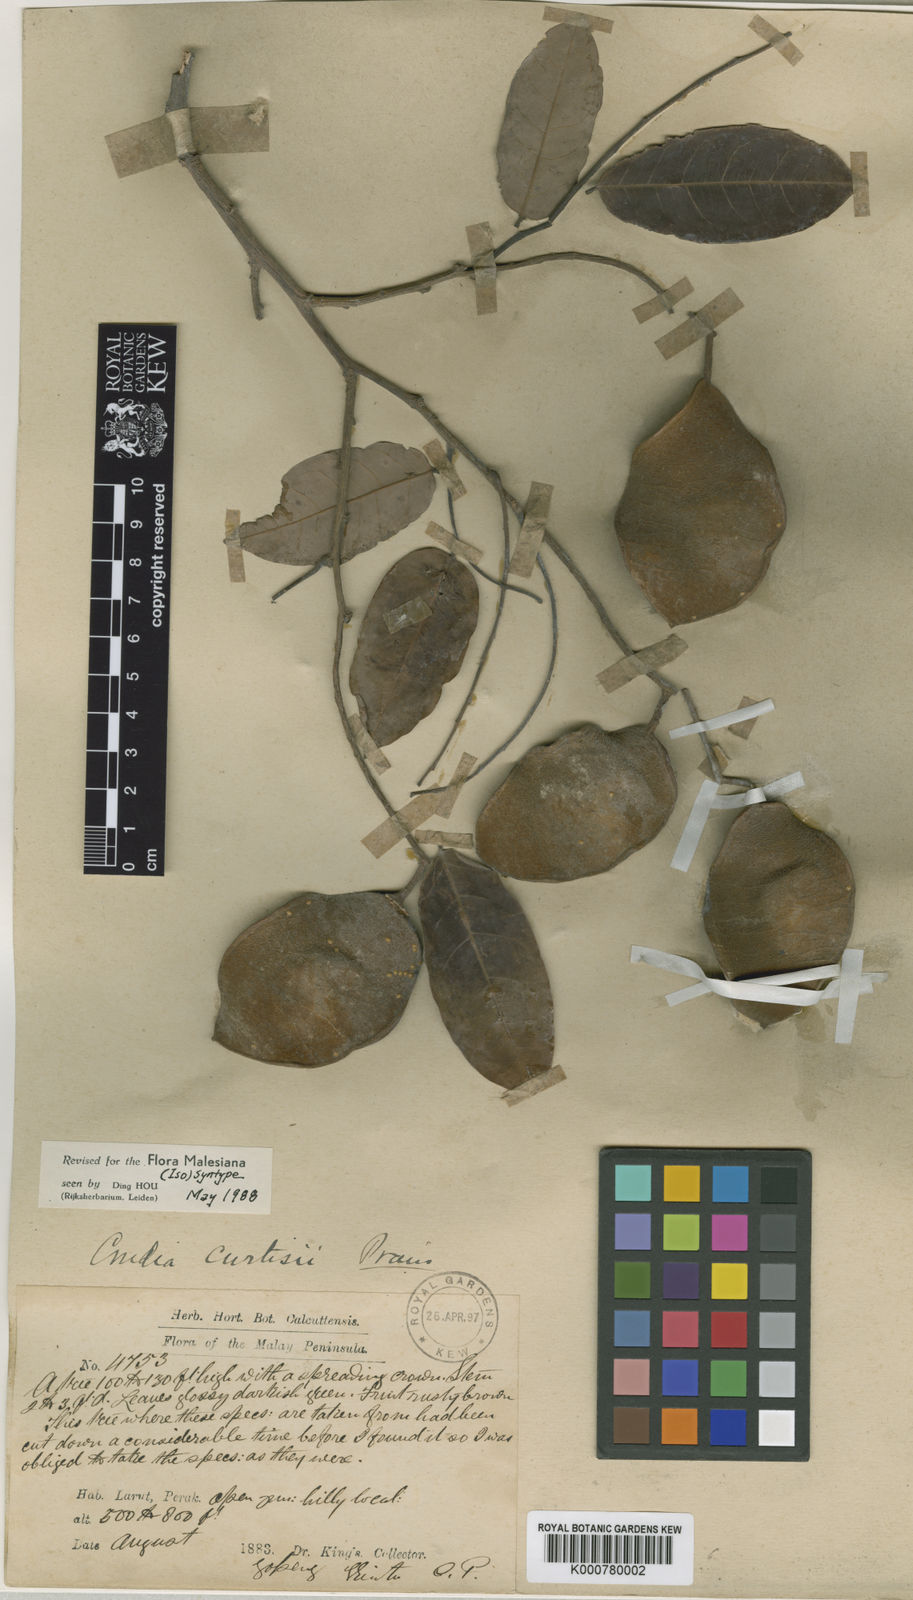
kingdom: Plantae
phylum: Tracheophyta
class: Magnoliopsida
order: Fabales
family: Fabaceae
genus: Crudia
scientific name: Crudia
